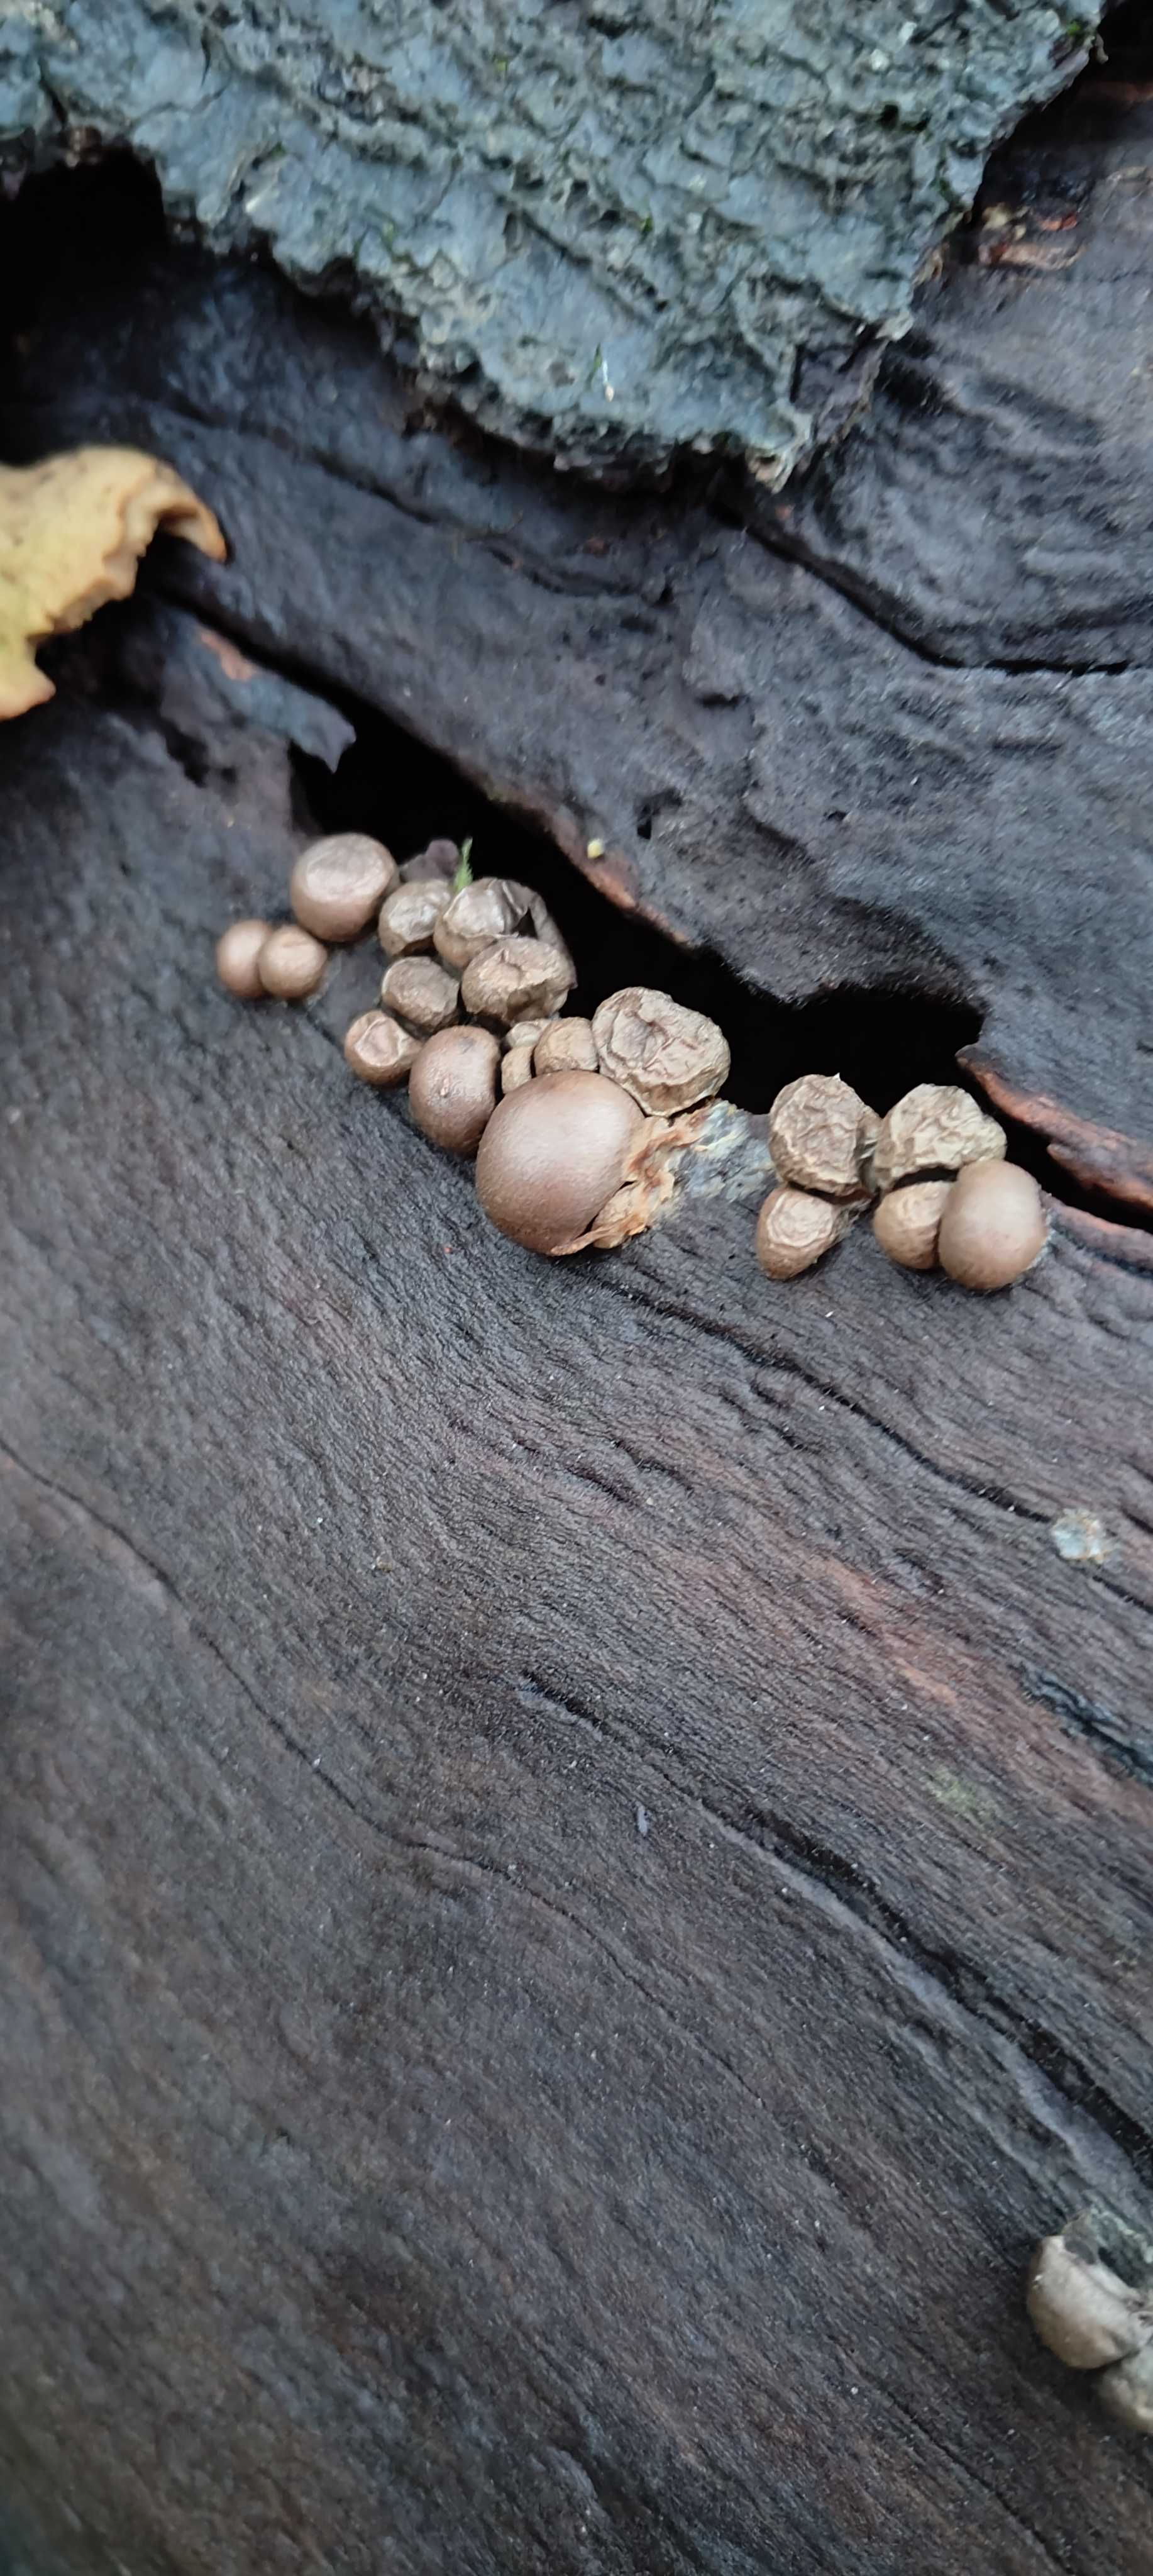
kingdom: Protozoa
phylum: Mycetozoa
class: Myxomycetes
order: Cribrariales
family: Tubiferaceae
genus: Lycogala
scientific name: Lycogala epidendrum
